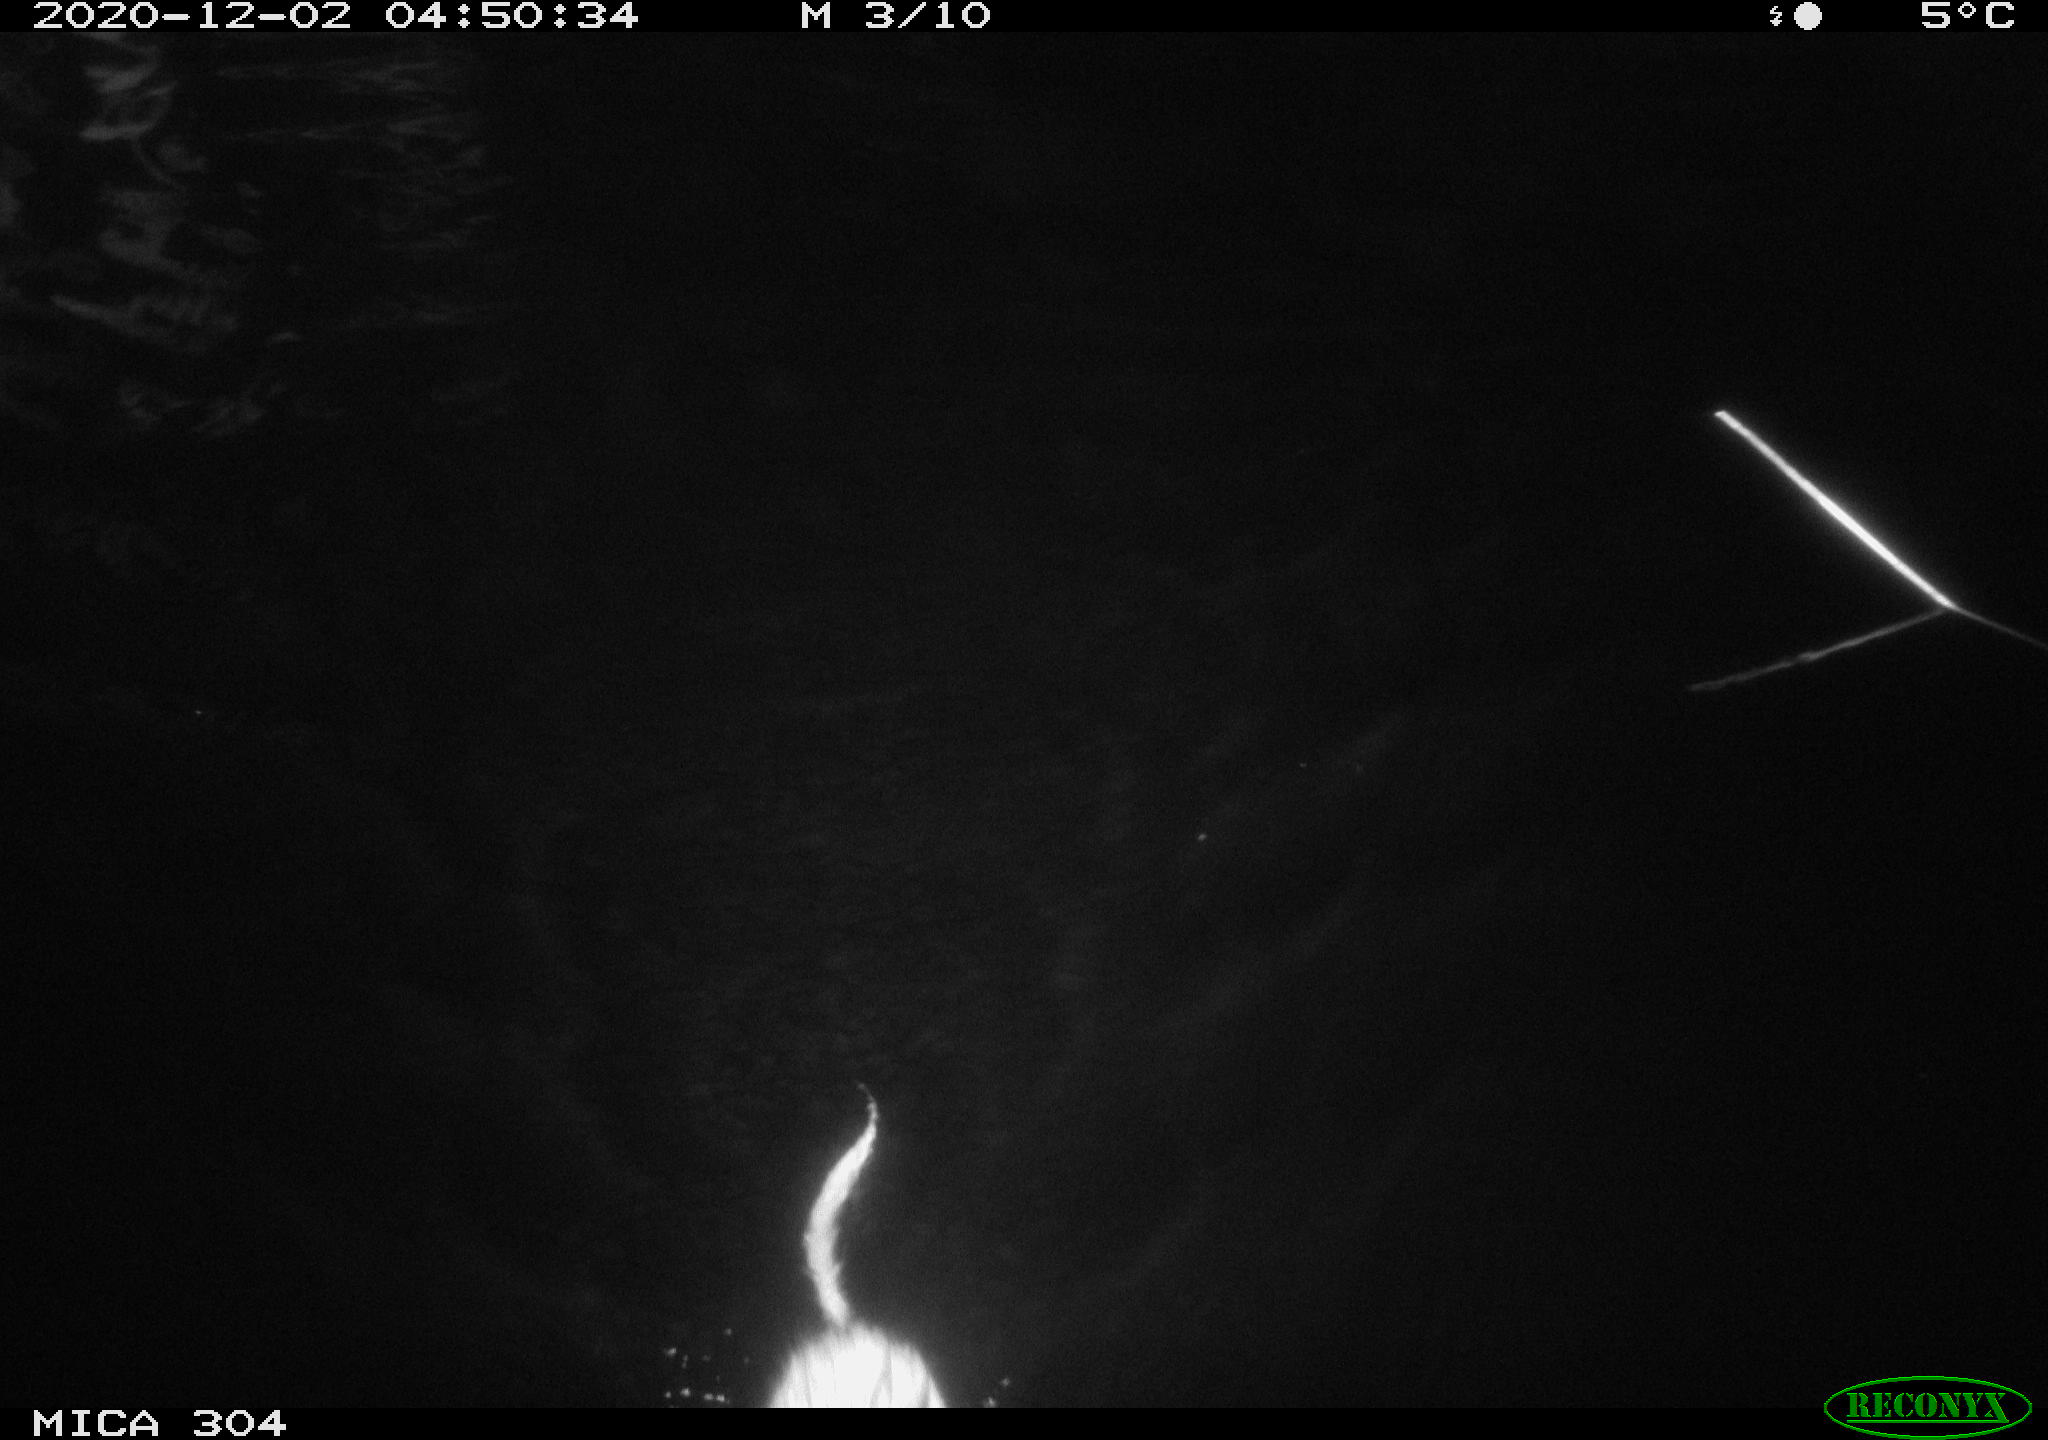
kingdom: Animalia
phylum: Chordata
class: Mammalia
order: Rodentia
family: Cricetidae
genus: Ondatra
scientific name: Ondatra zibethicus
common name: Muskrat
